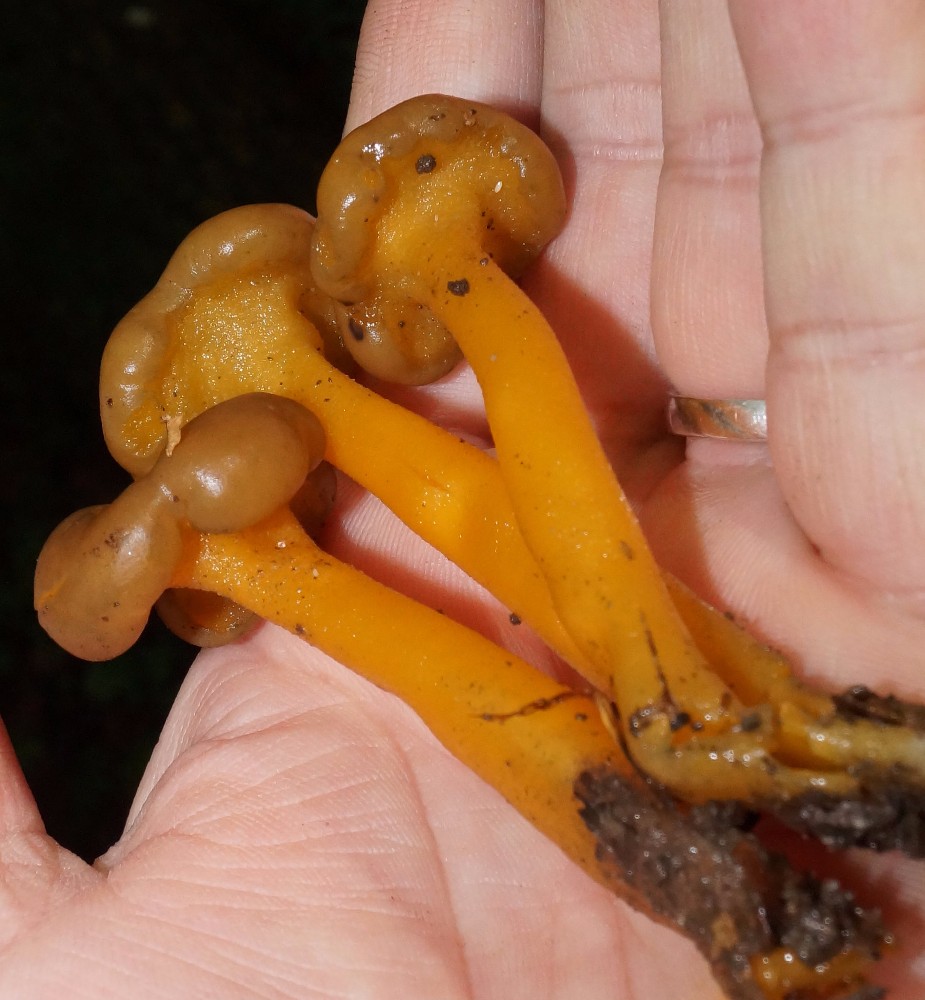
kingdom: Fungi
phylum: Ascomycota
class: Leotiomycetes
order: Leotiales
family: Leotiaceae
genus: Leotia
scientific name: Leotia lubrica
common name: ravsvamp
